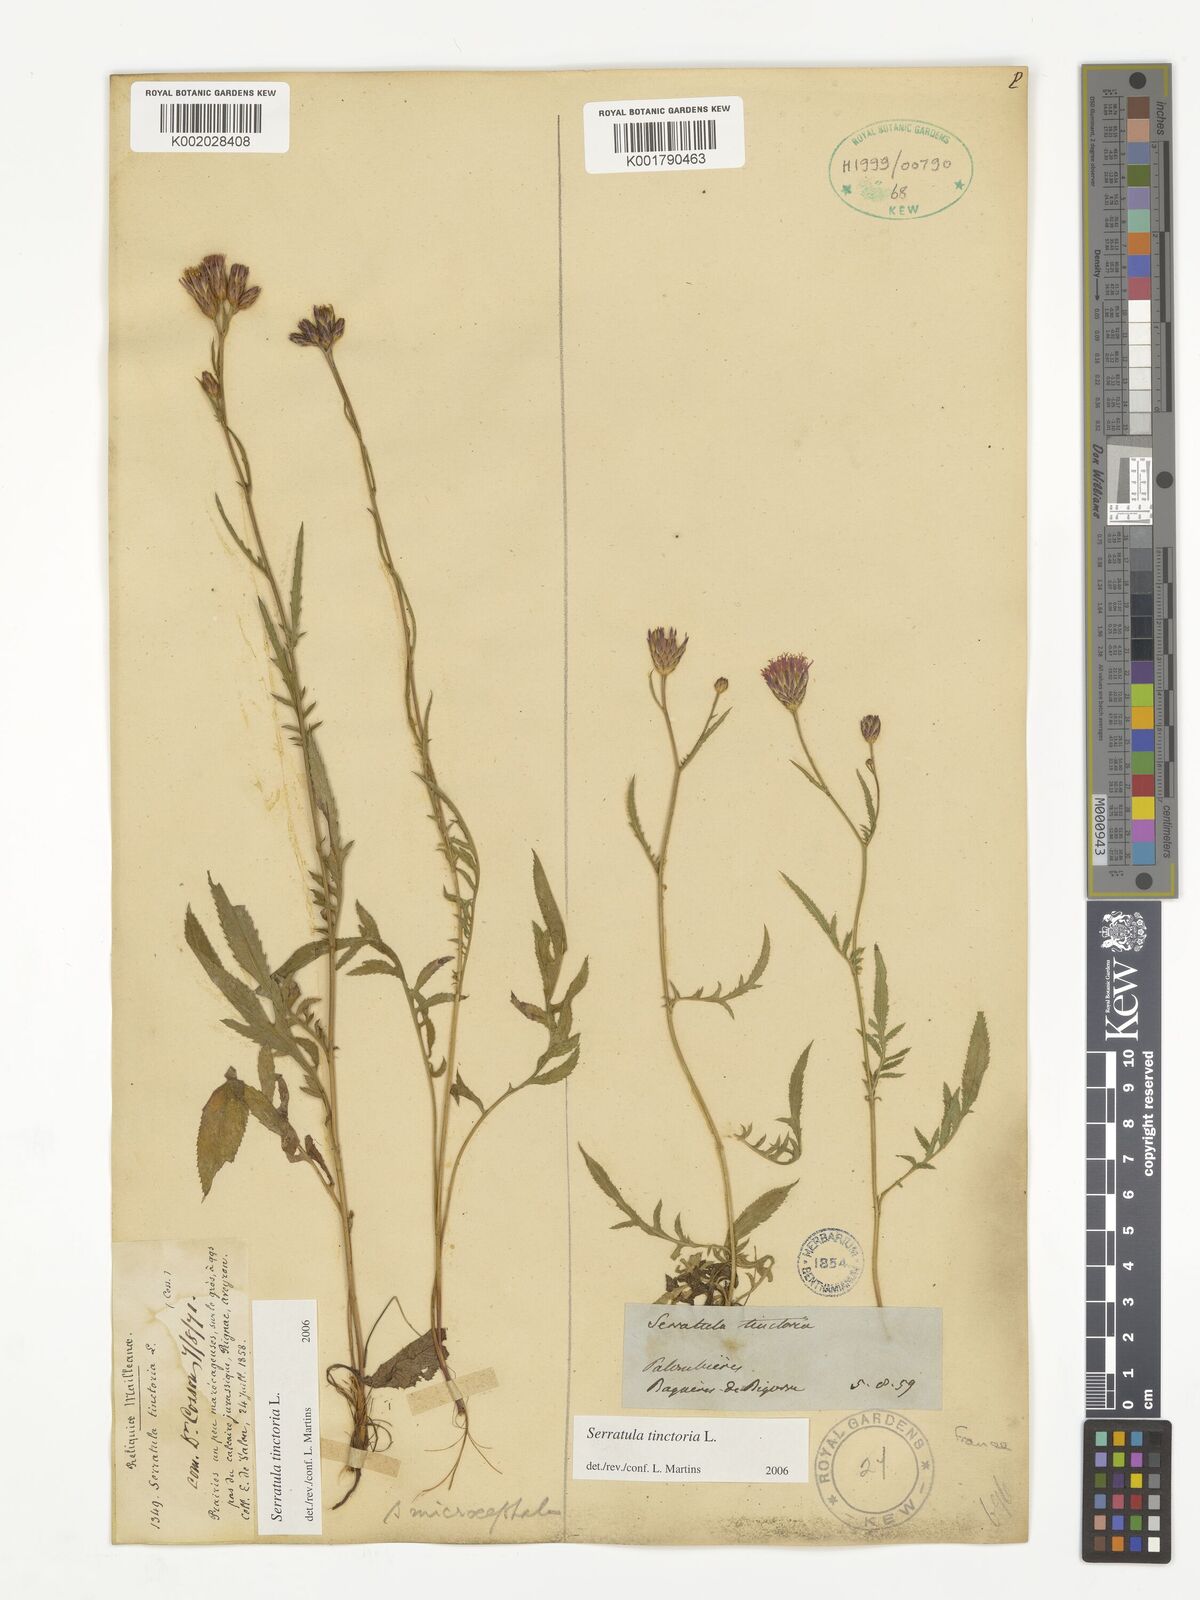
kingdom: Plantae
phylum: Tracheophyta
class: Magnoliopsida
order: Asterales
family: Asteraceae
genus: Serratula
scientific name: Serratula tinctoria
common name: Saw-wort
